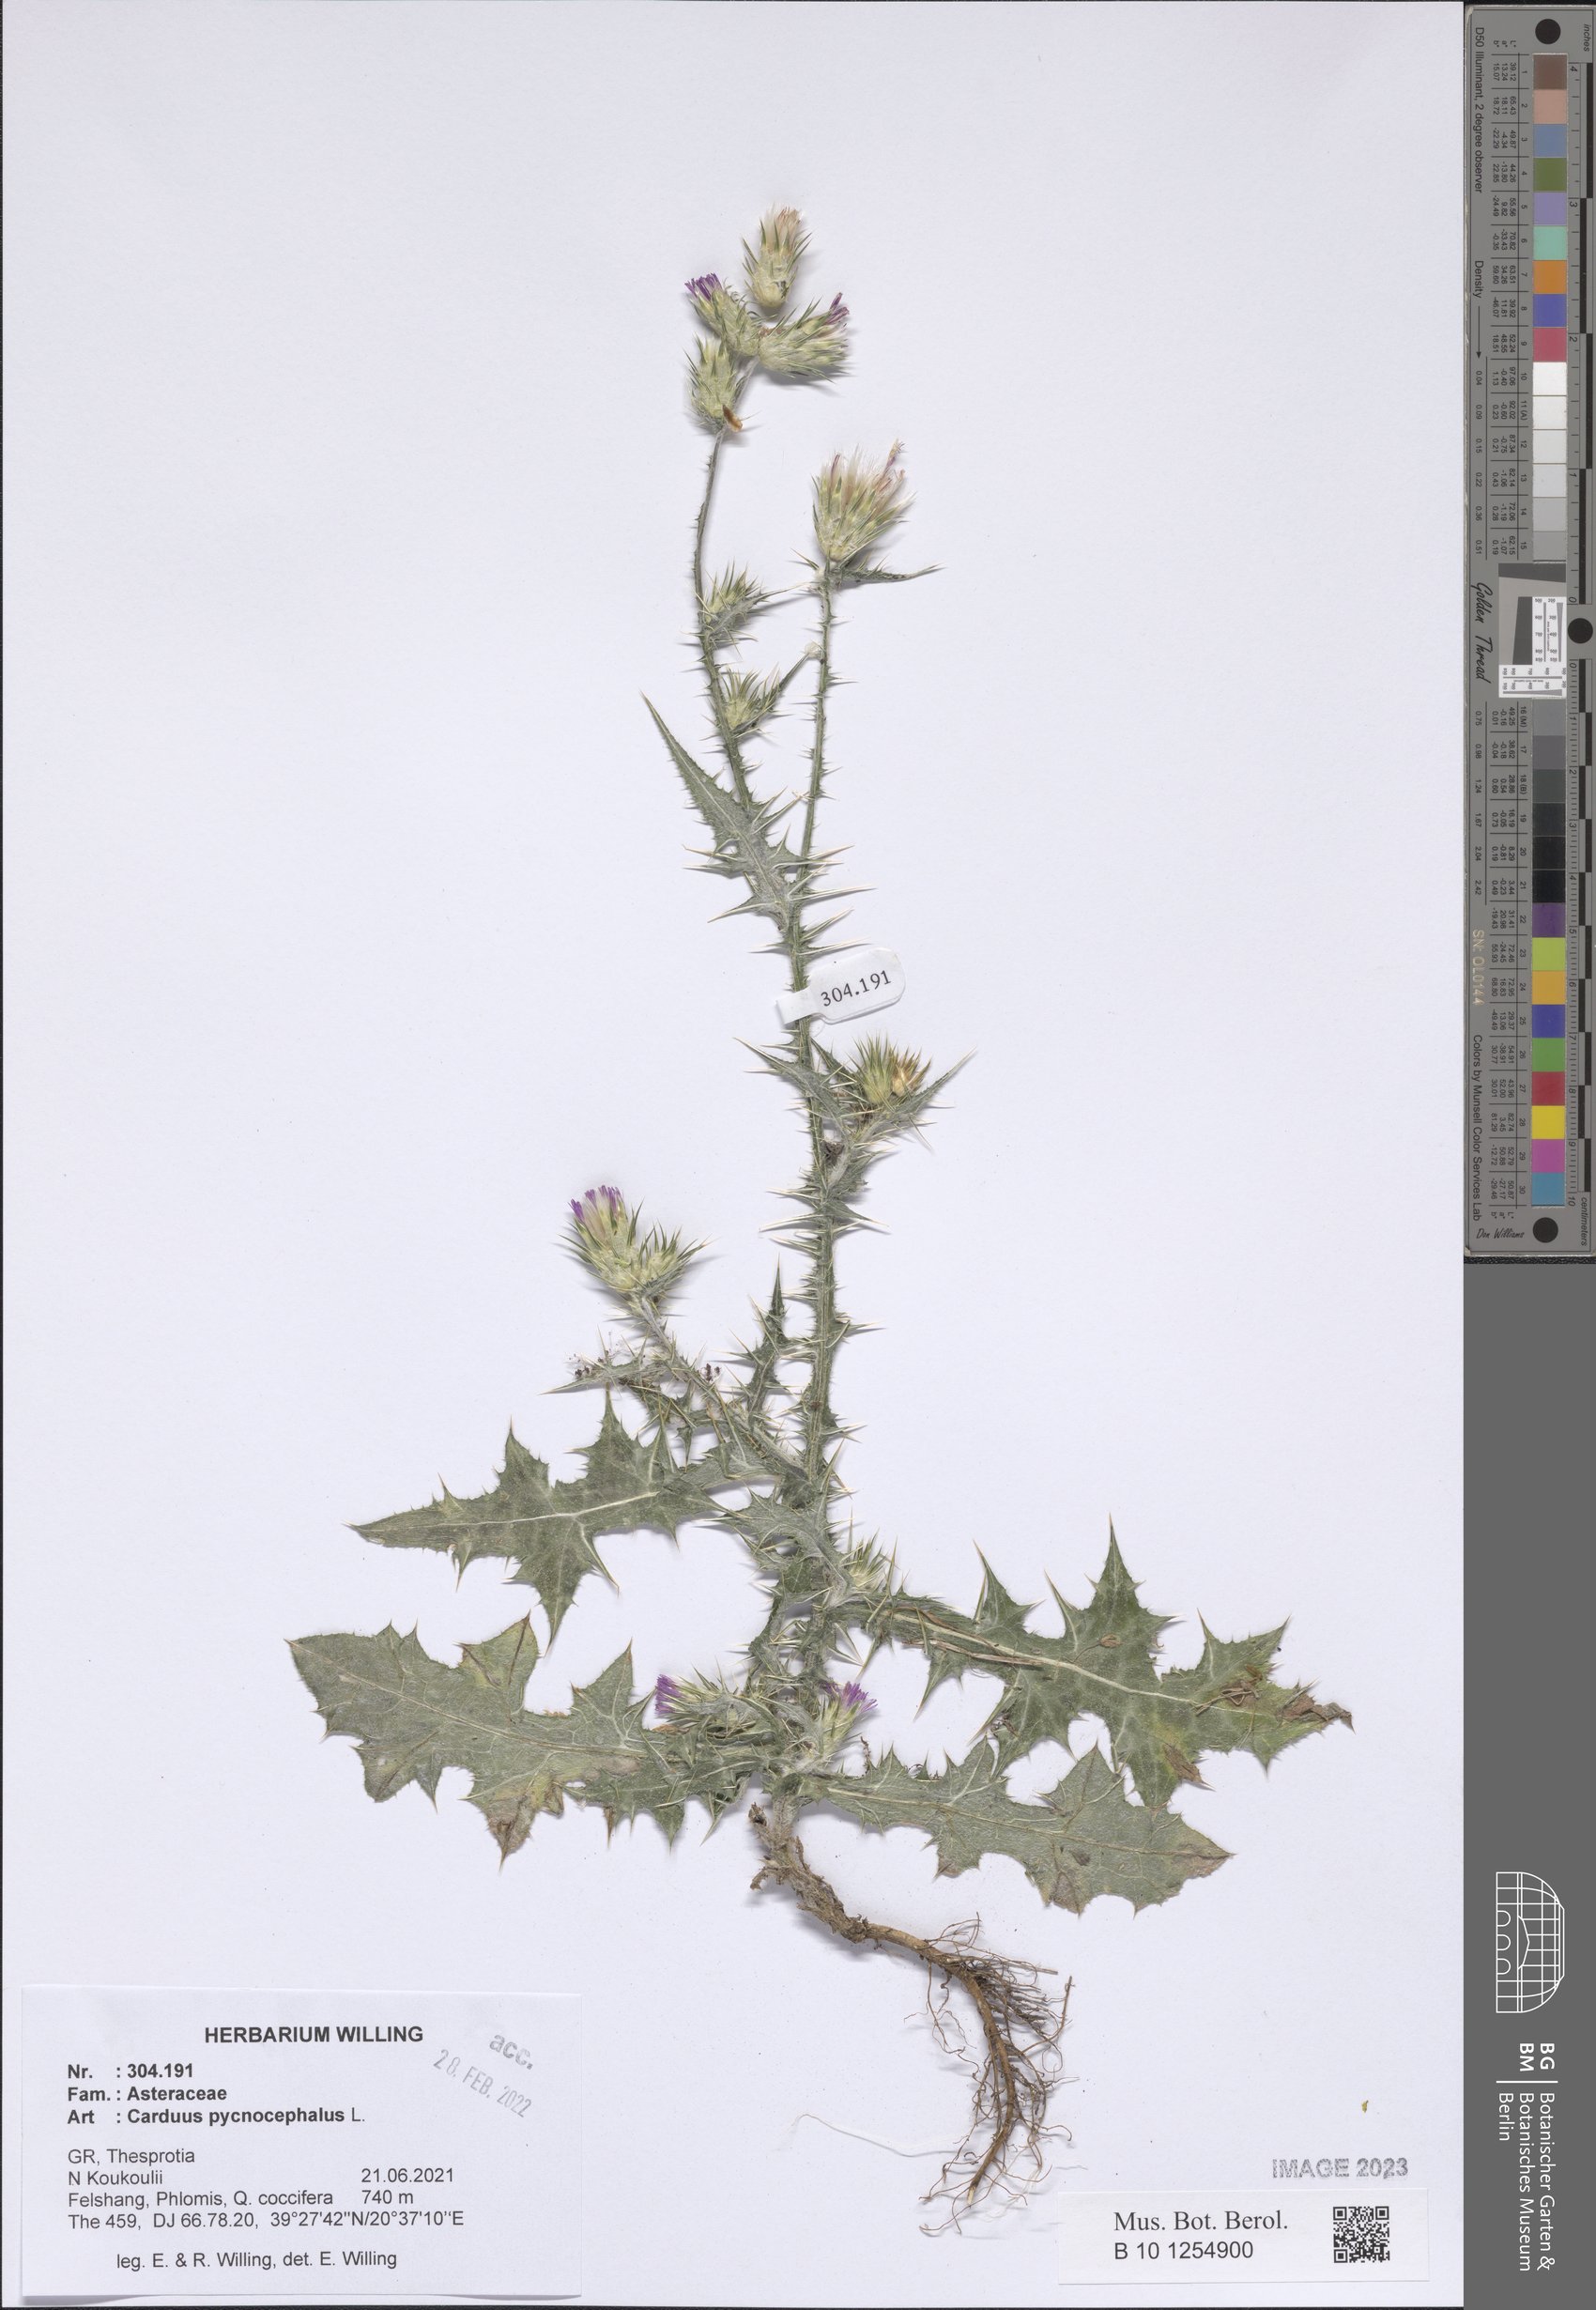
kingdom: Plantae
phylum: Tracheophyta
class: Magnoliopsida
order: Asterales
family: Asteraceae
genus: Carduus
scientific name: Carduus pycnocephalus
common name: Plymouth thistle
